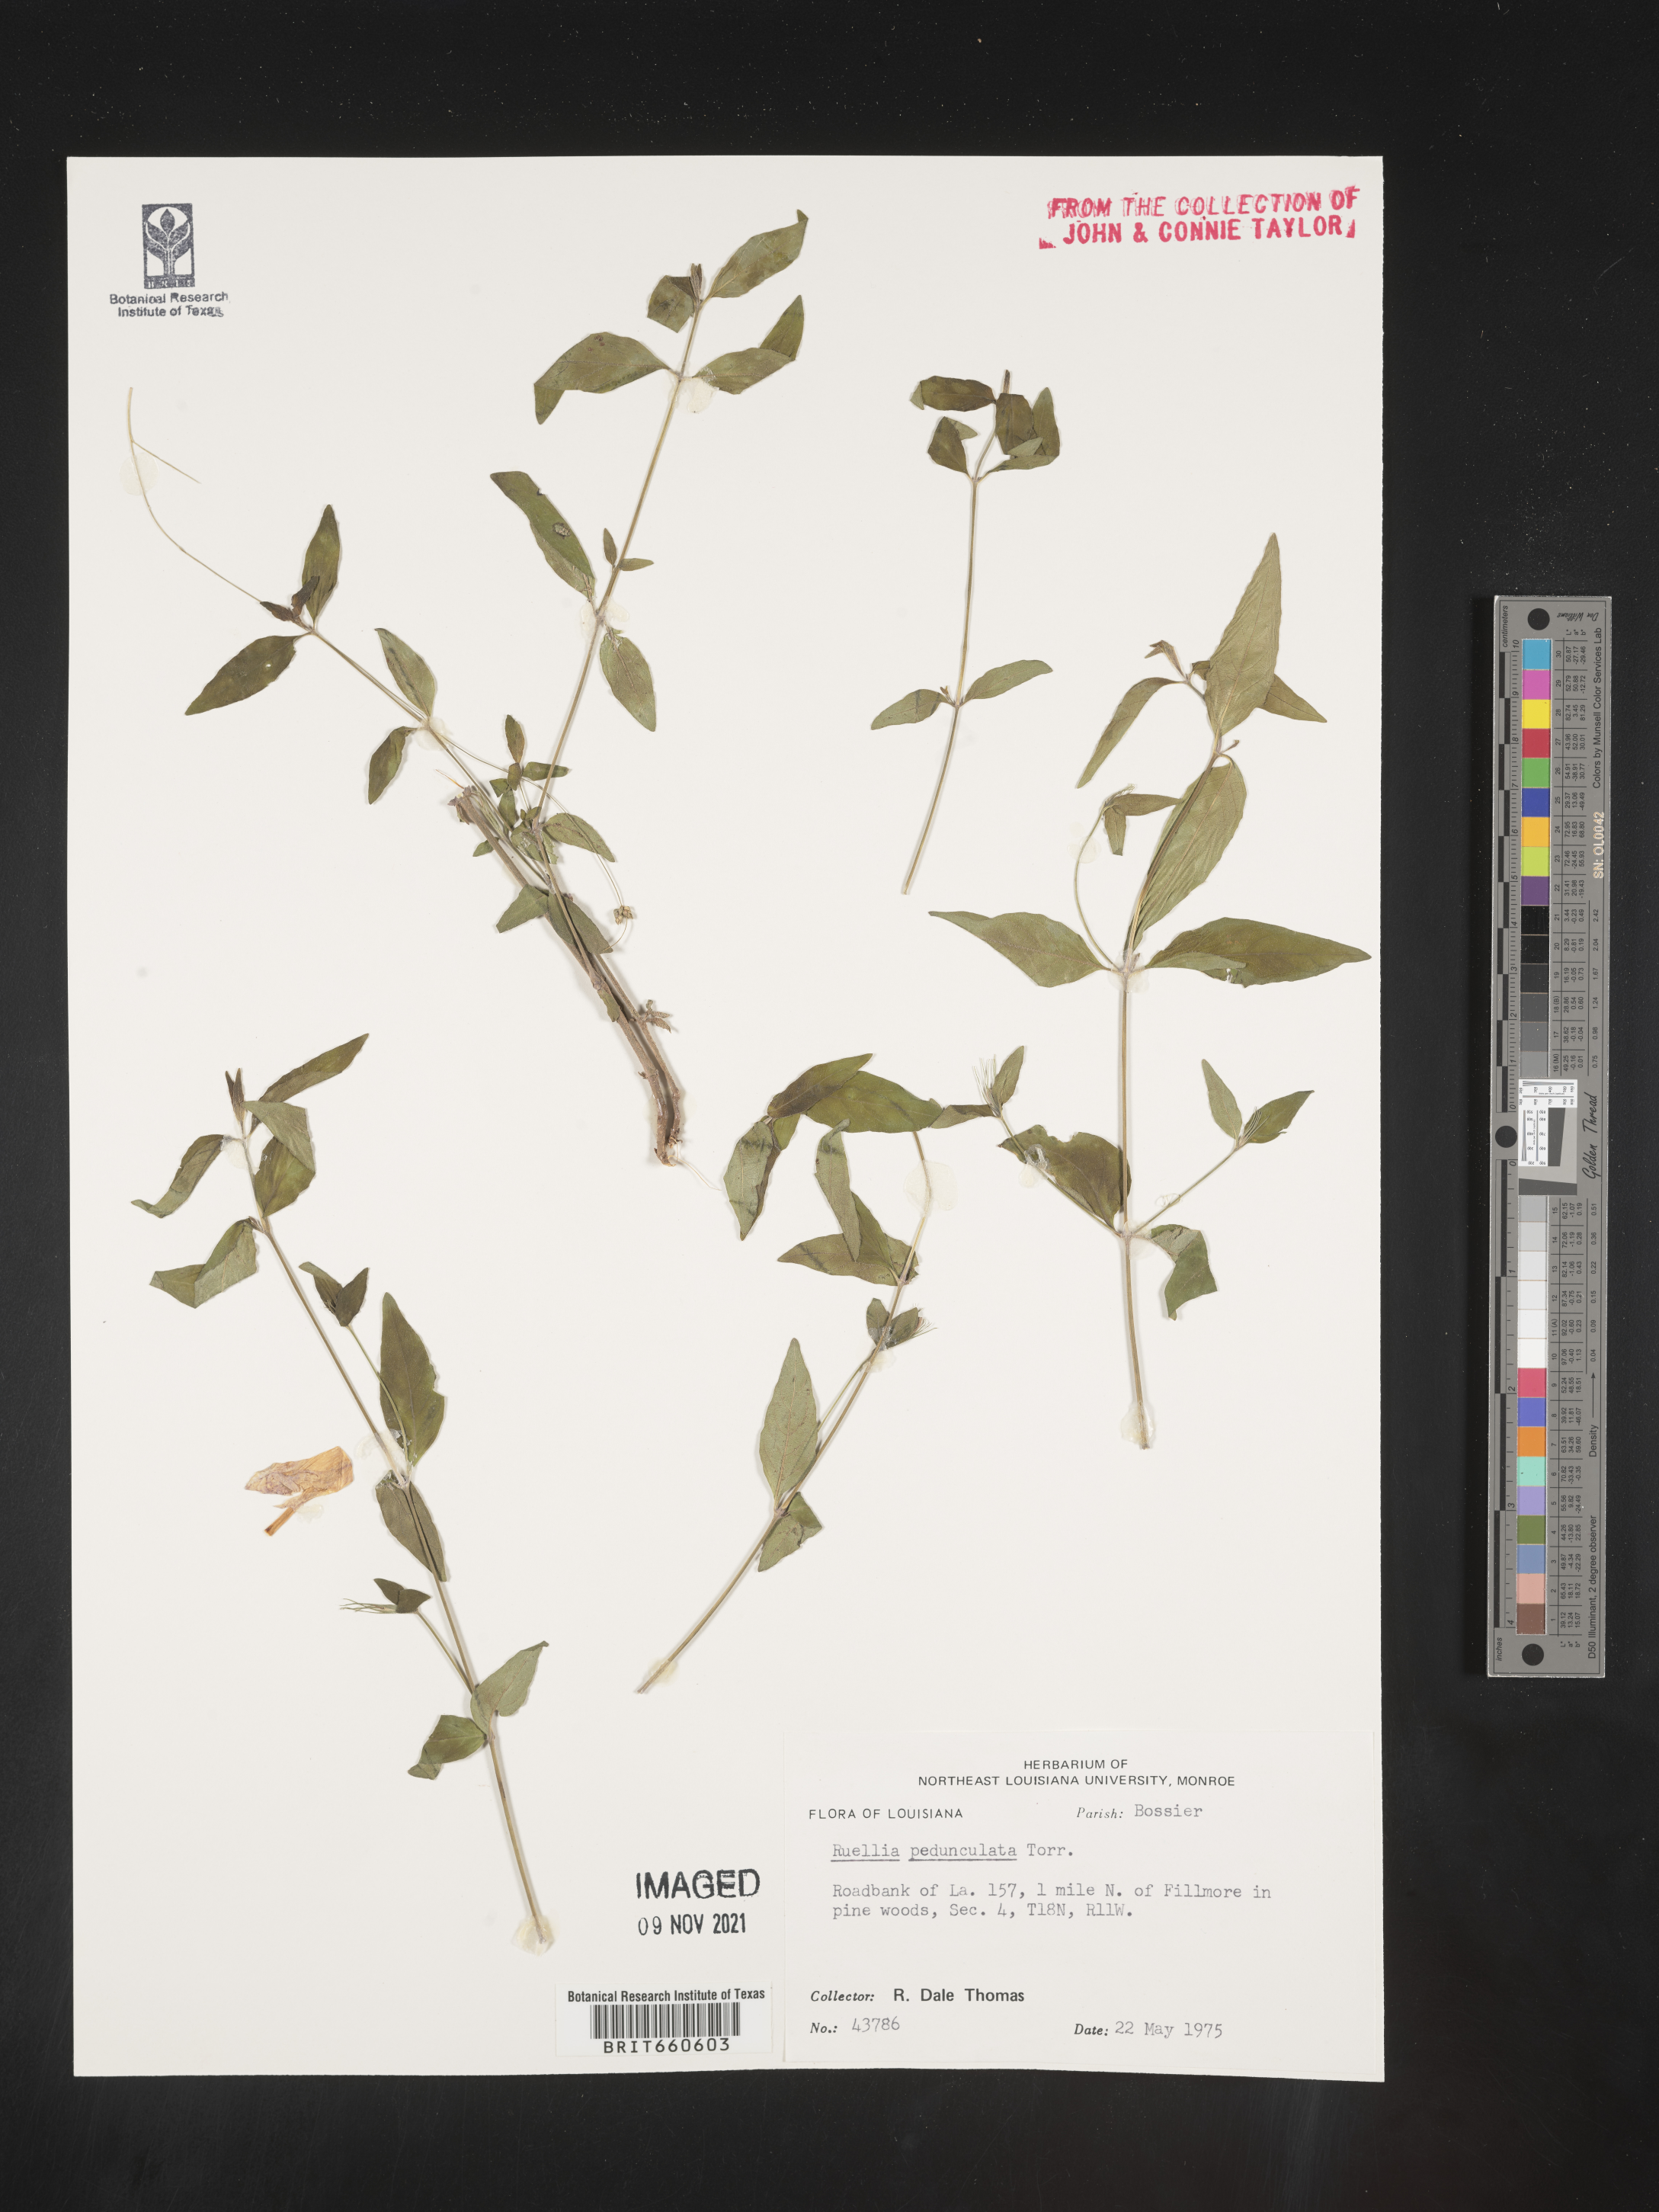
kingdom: Plantae
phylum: Tracheophyta
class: Magnoliopsida
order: Lamiales
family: Acanthaceae
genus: Ruellia
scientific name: Ruellia pedunculata
